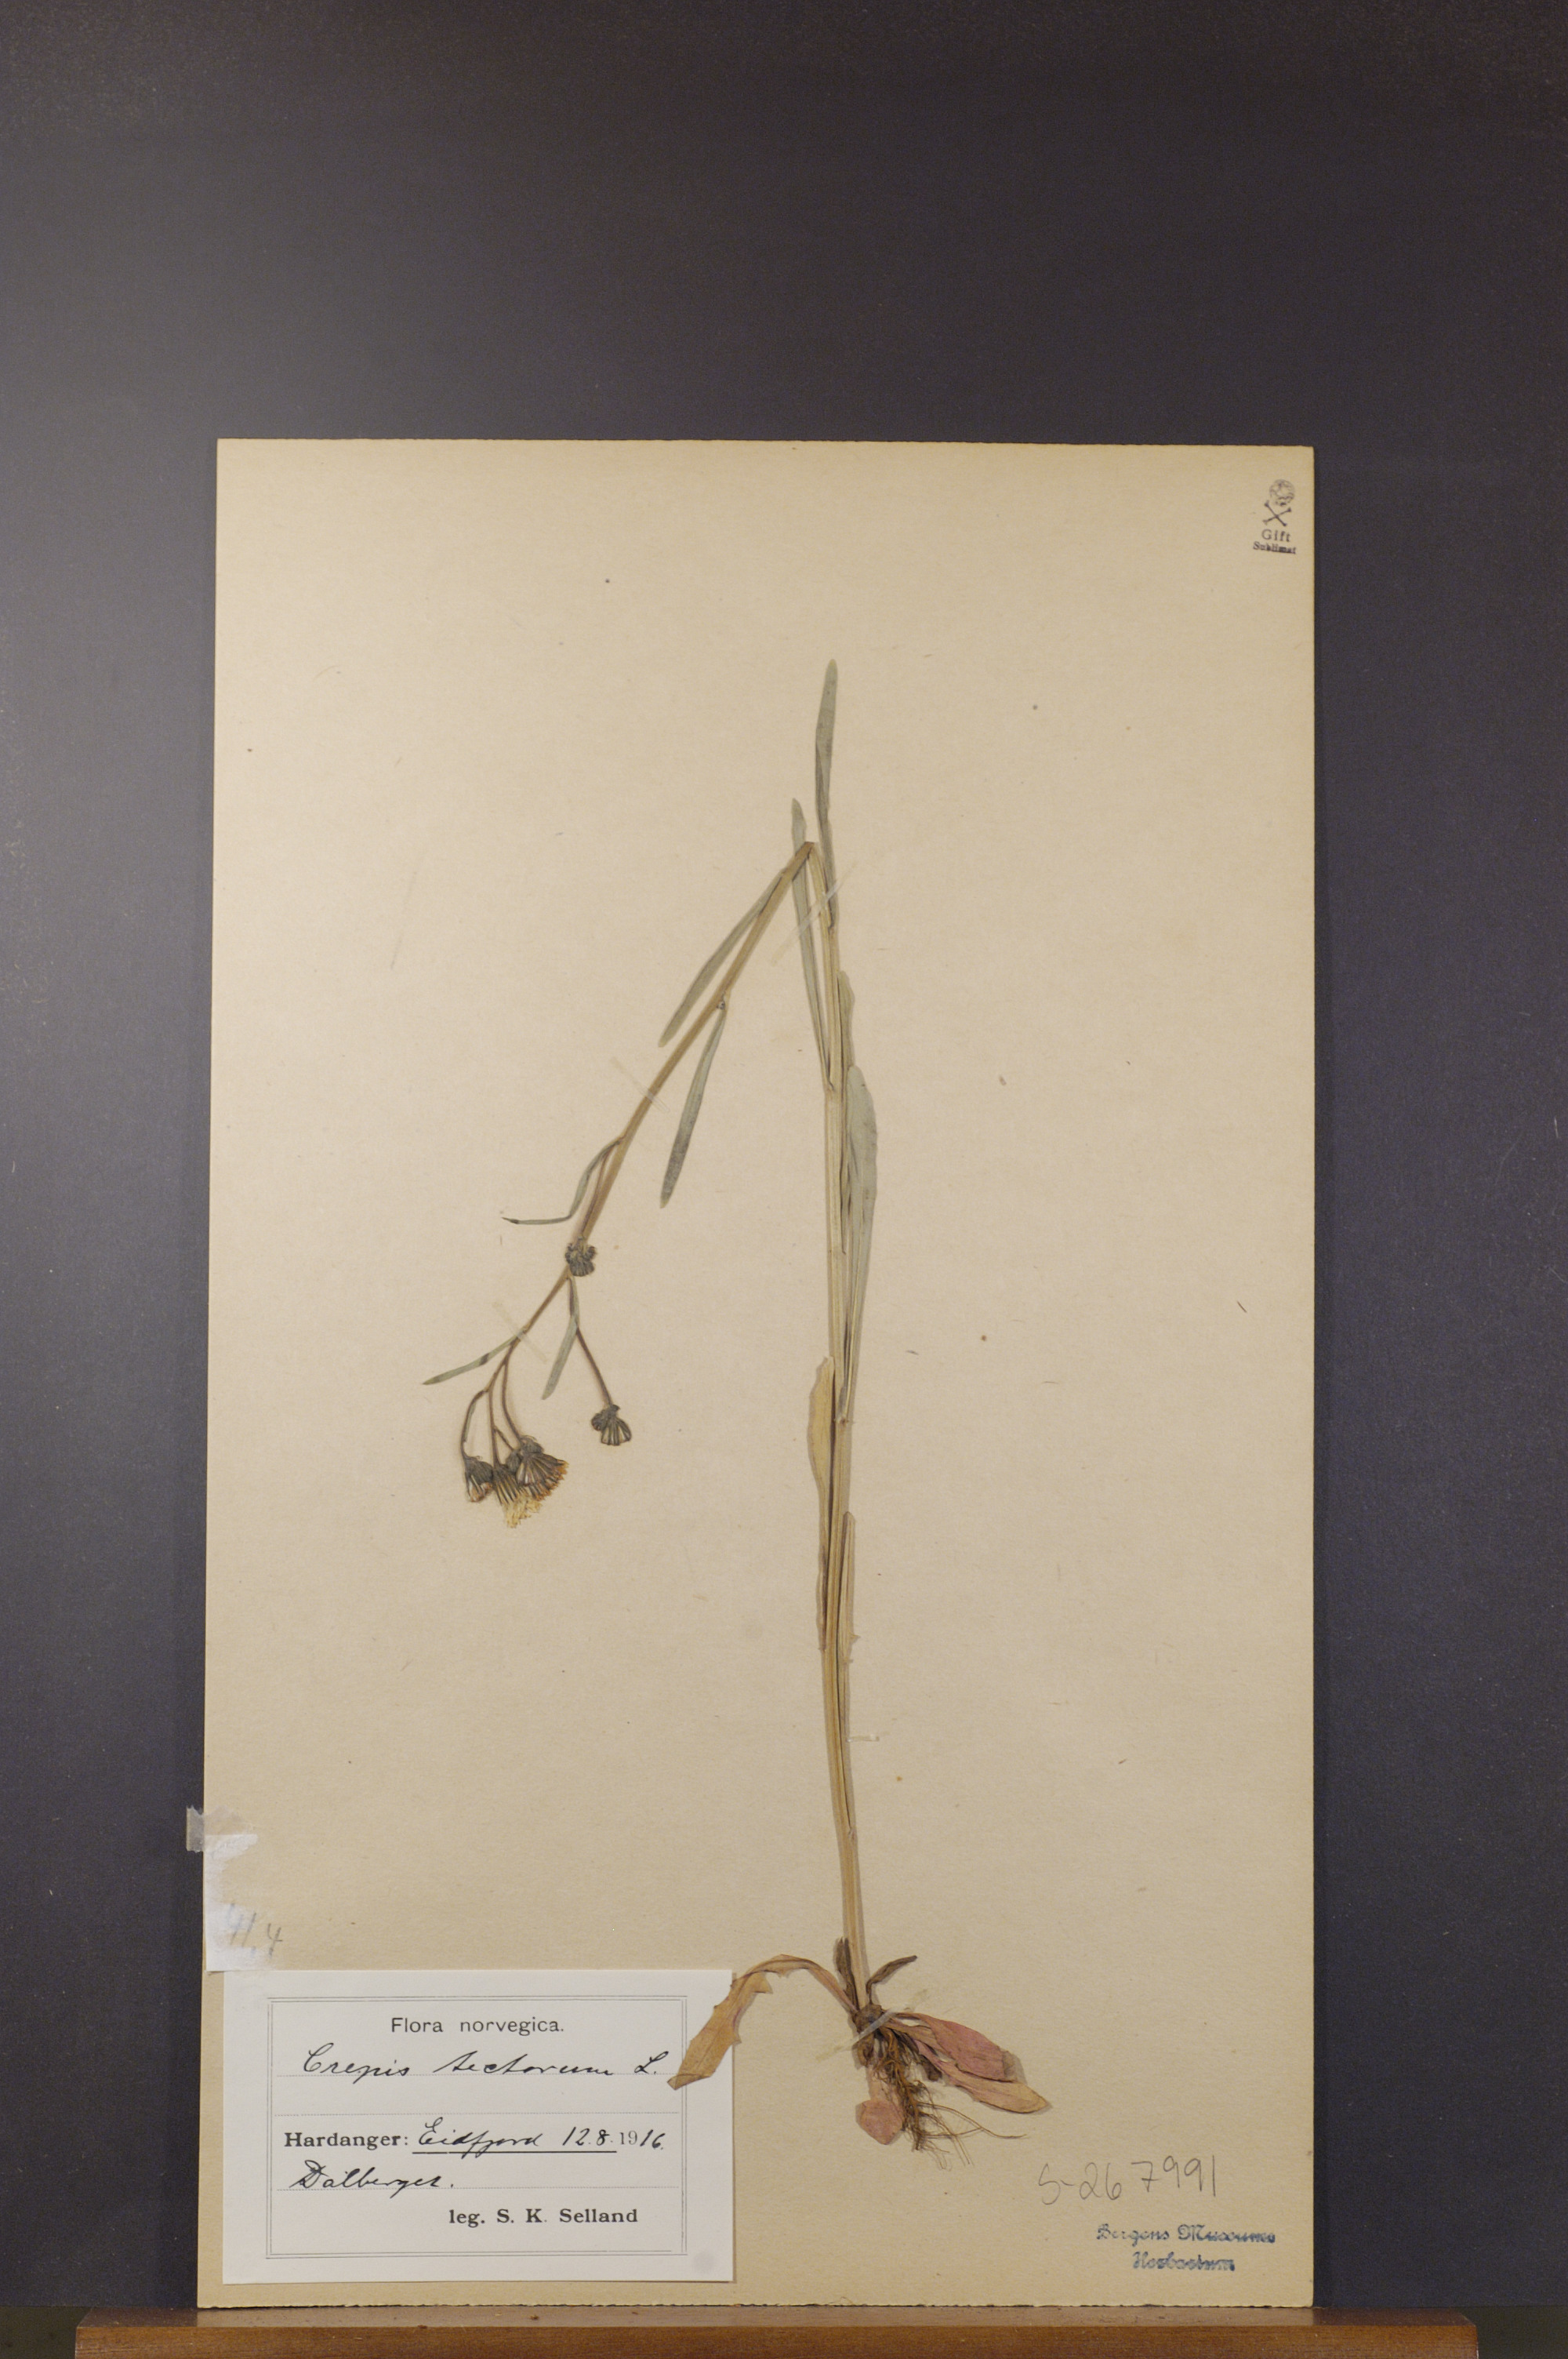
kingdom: Plantae
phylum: Tracheophyta
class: Magnoliopsida
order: Asterales
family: Asteraceae
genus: Crepis
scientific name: Crepis tectorum
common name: Narrow-leaved hawk's-beard
